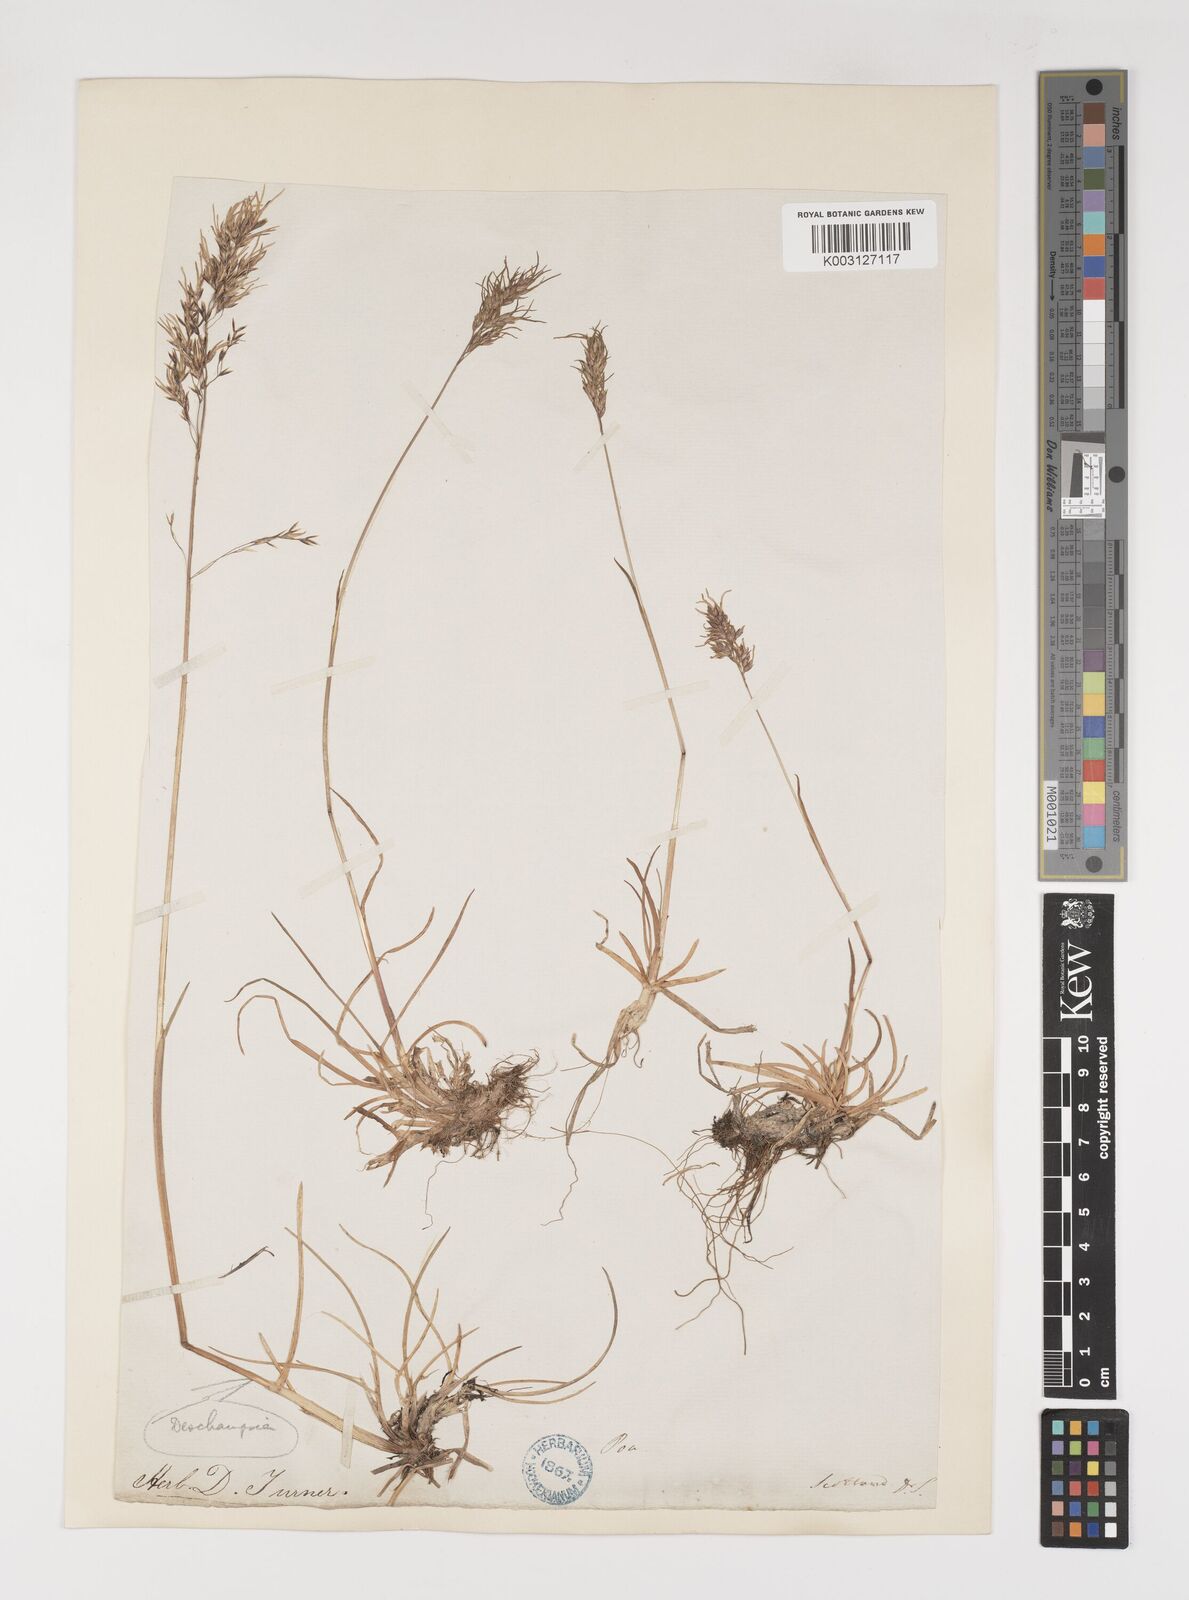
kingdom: Plantae
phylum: Tracheophyta
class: Liliopsida
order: Poales
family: Poaceae
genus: Poa
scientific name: Poa alpina
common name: Alpine bluegrass
